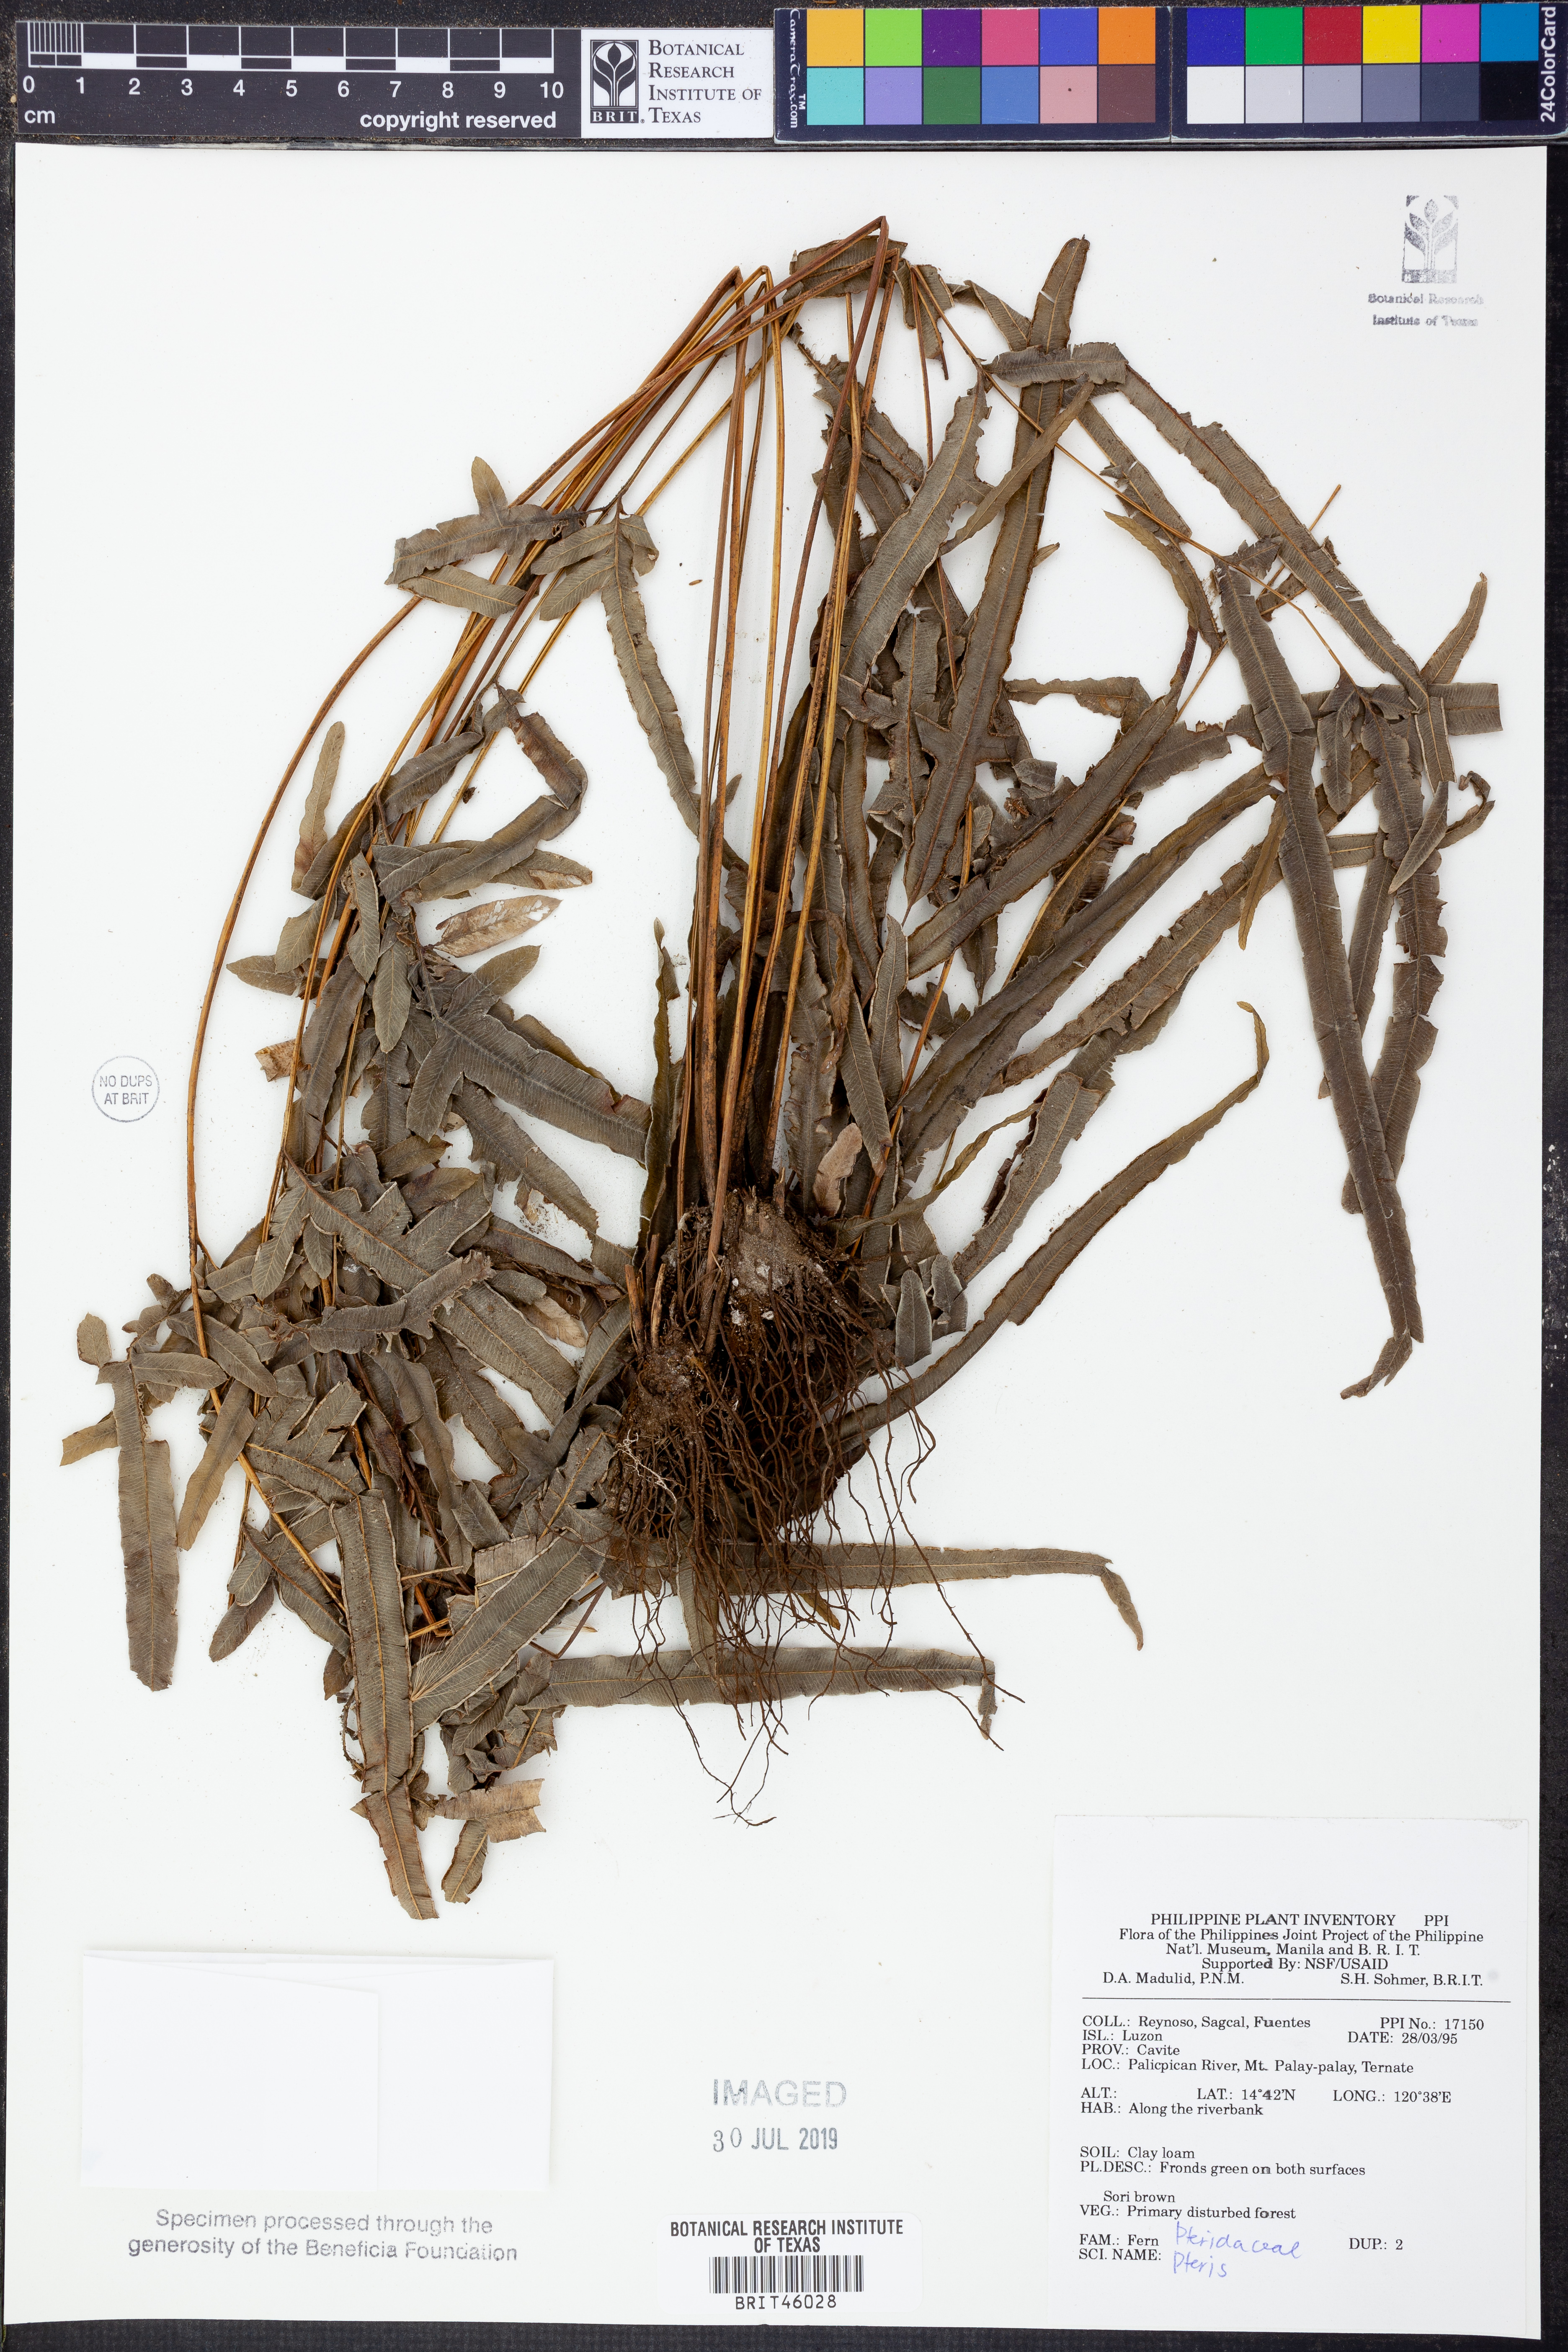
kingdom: Plantae
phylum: Tracheophyta
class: Polypodiopsida
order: Polypodiales
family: Pteridaceae
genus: Pteris
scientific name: Pteris
